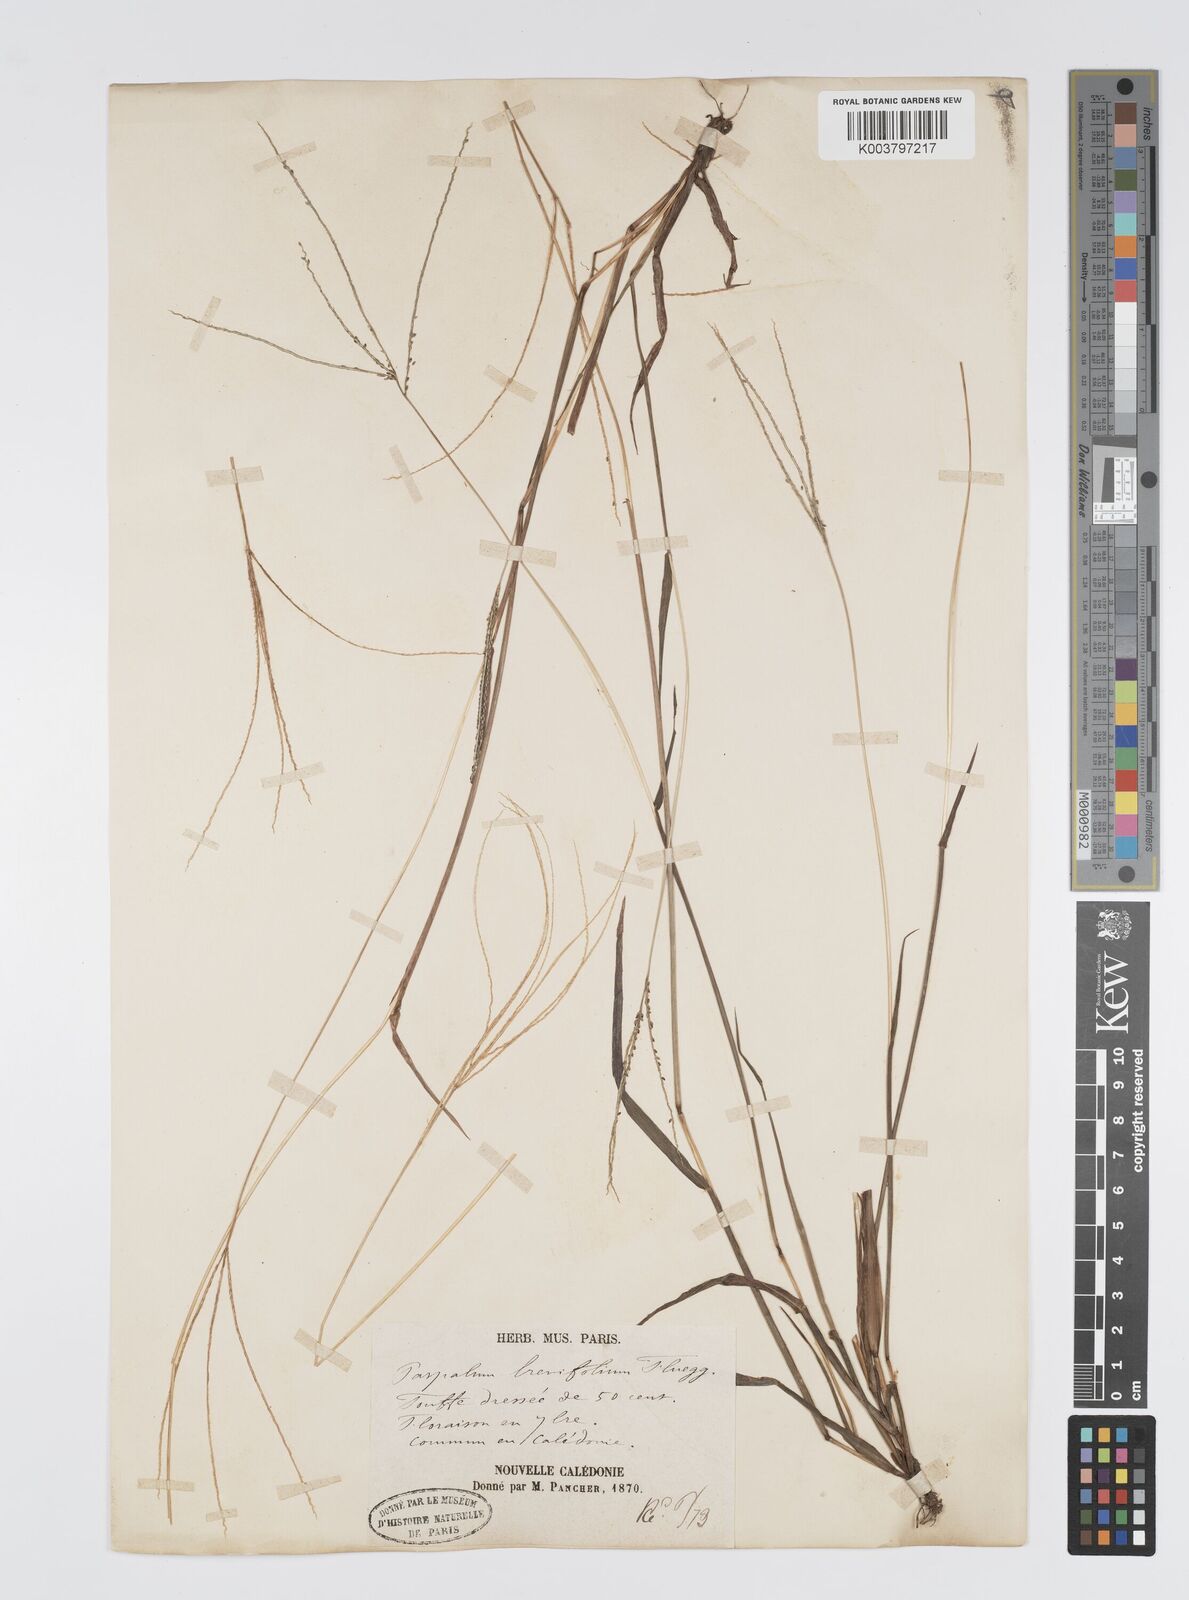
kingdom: Plantae
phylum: Tracheophyta
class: Liliopsida
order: Poales
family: Poaceae
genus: Digitaria
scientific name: Digitaria caledonica
